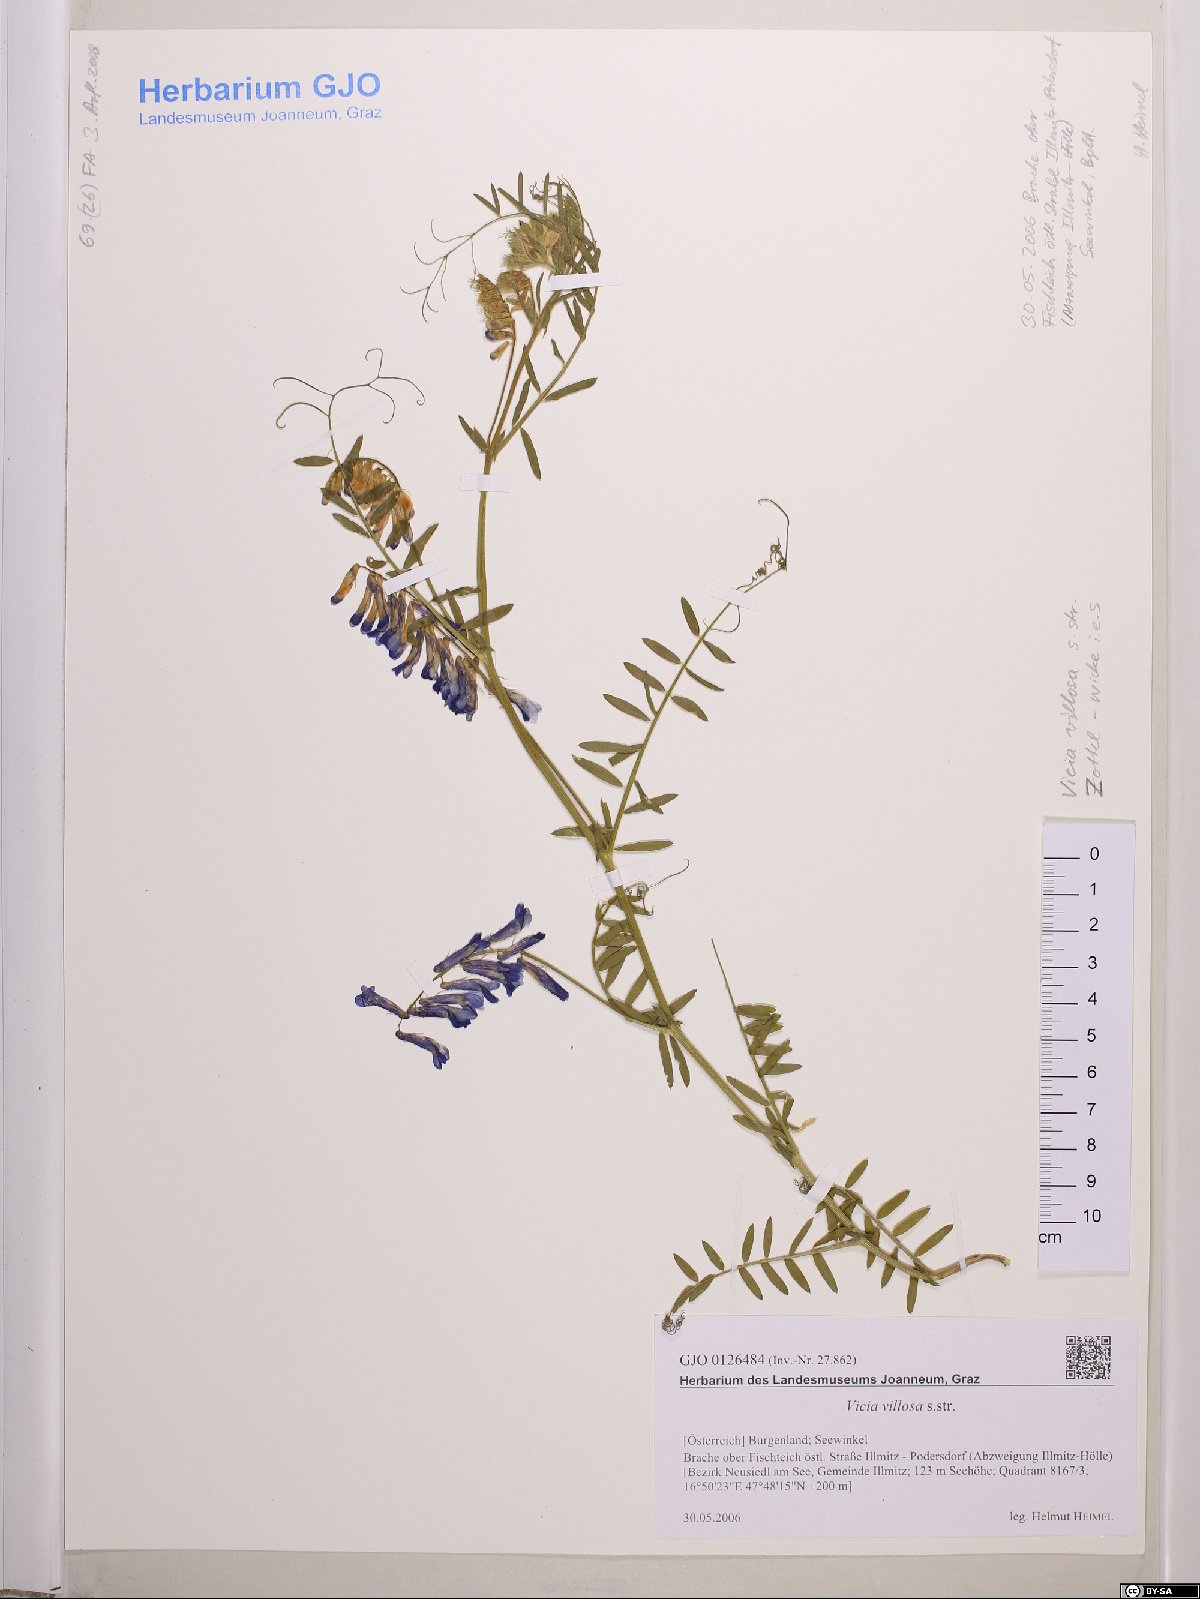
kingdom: Plantae
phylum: Tracheophyta
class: Magnoliopsida
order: Fabales
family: Fabaceae
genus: Vicia
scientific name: Vicia villosa
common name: Fodder vetch
